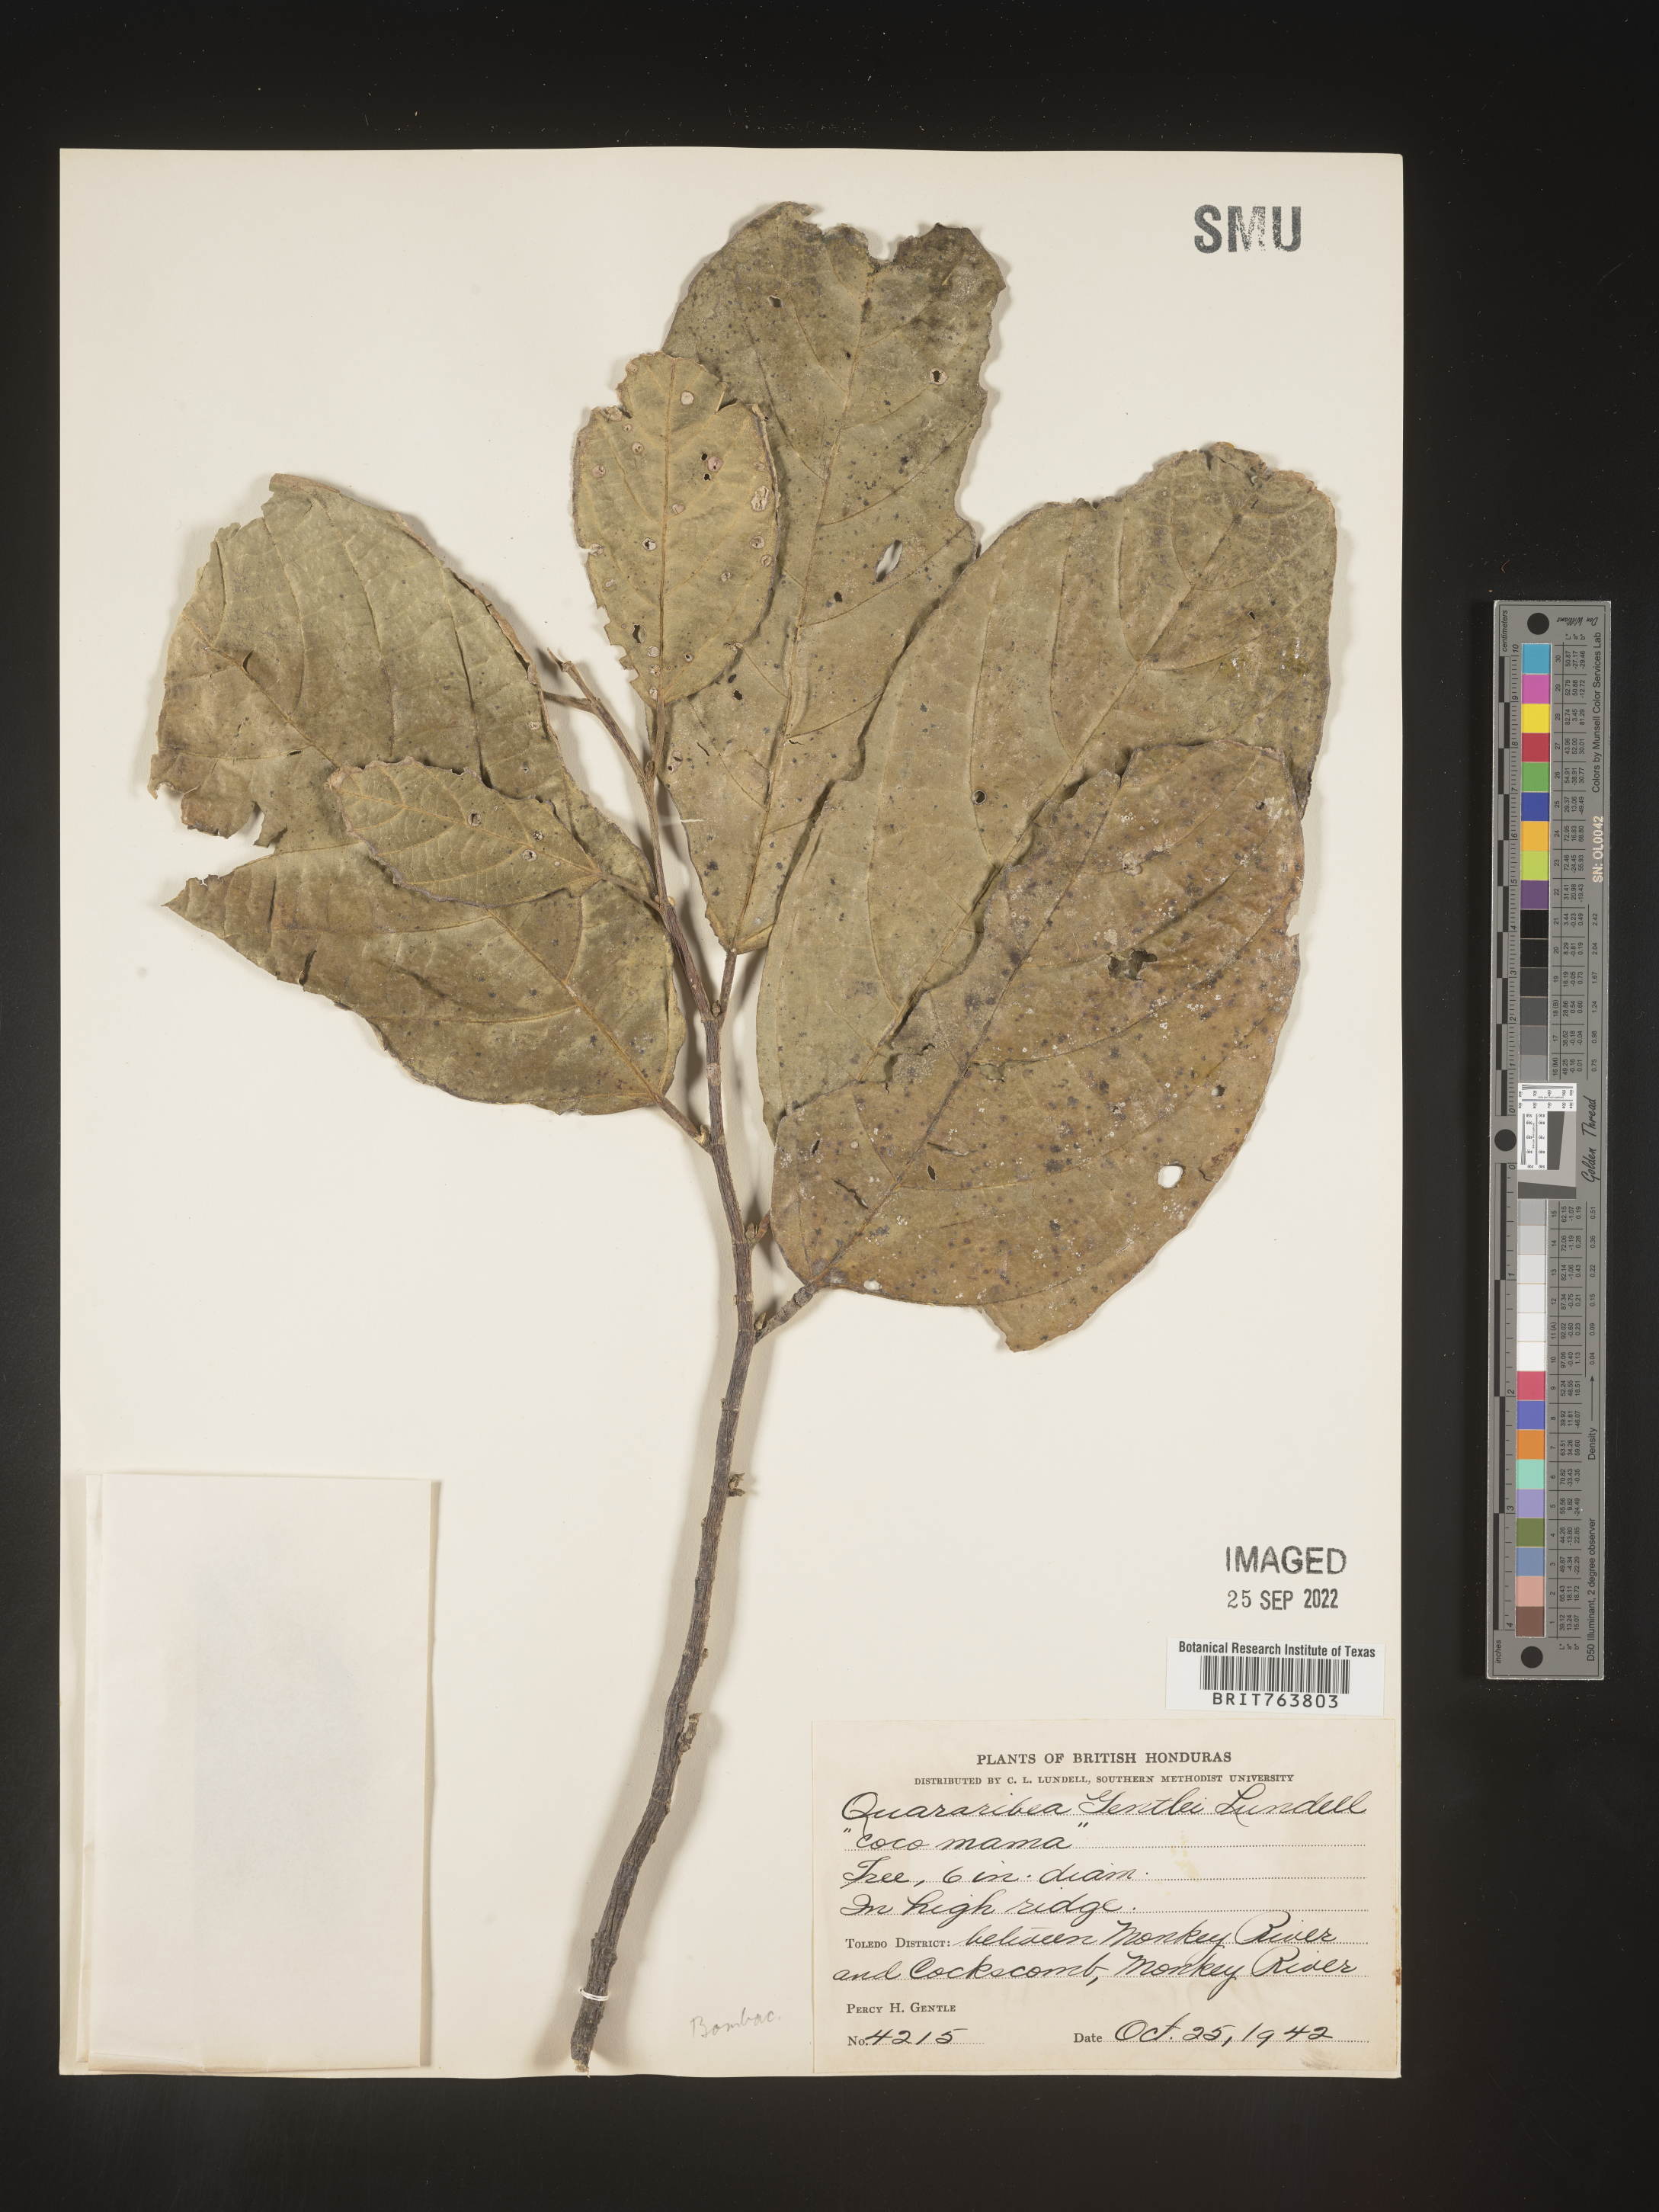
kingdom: Plantae
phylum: Tracheophyta
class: Magnoliopsida
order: Malvales
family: Malvaceae
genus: Quararibea
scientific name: Quararibea
